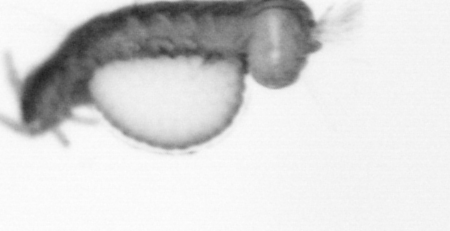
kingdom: Animalia
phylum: Annelida
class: Polychaeta
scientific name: Polychaeta
